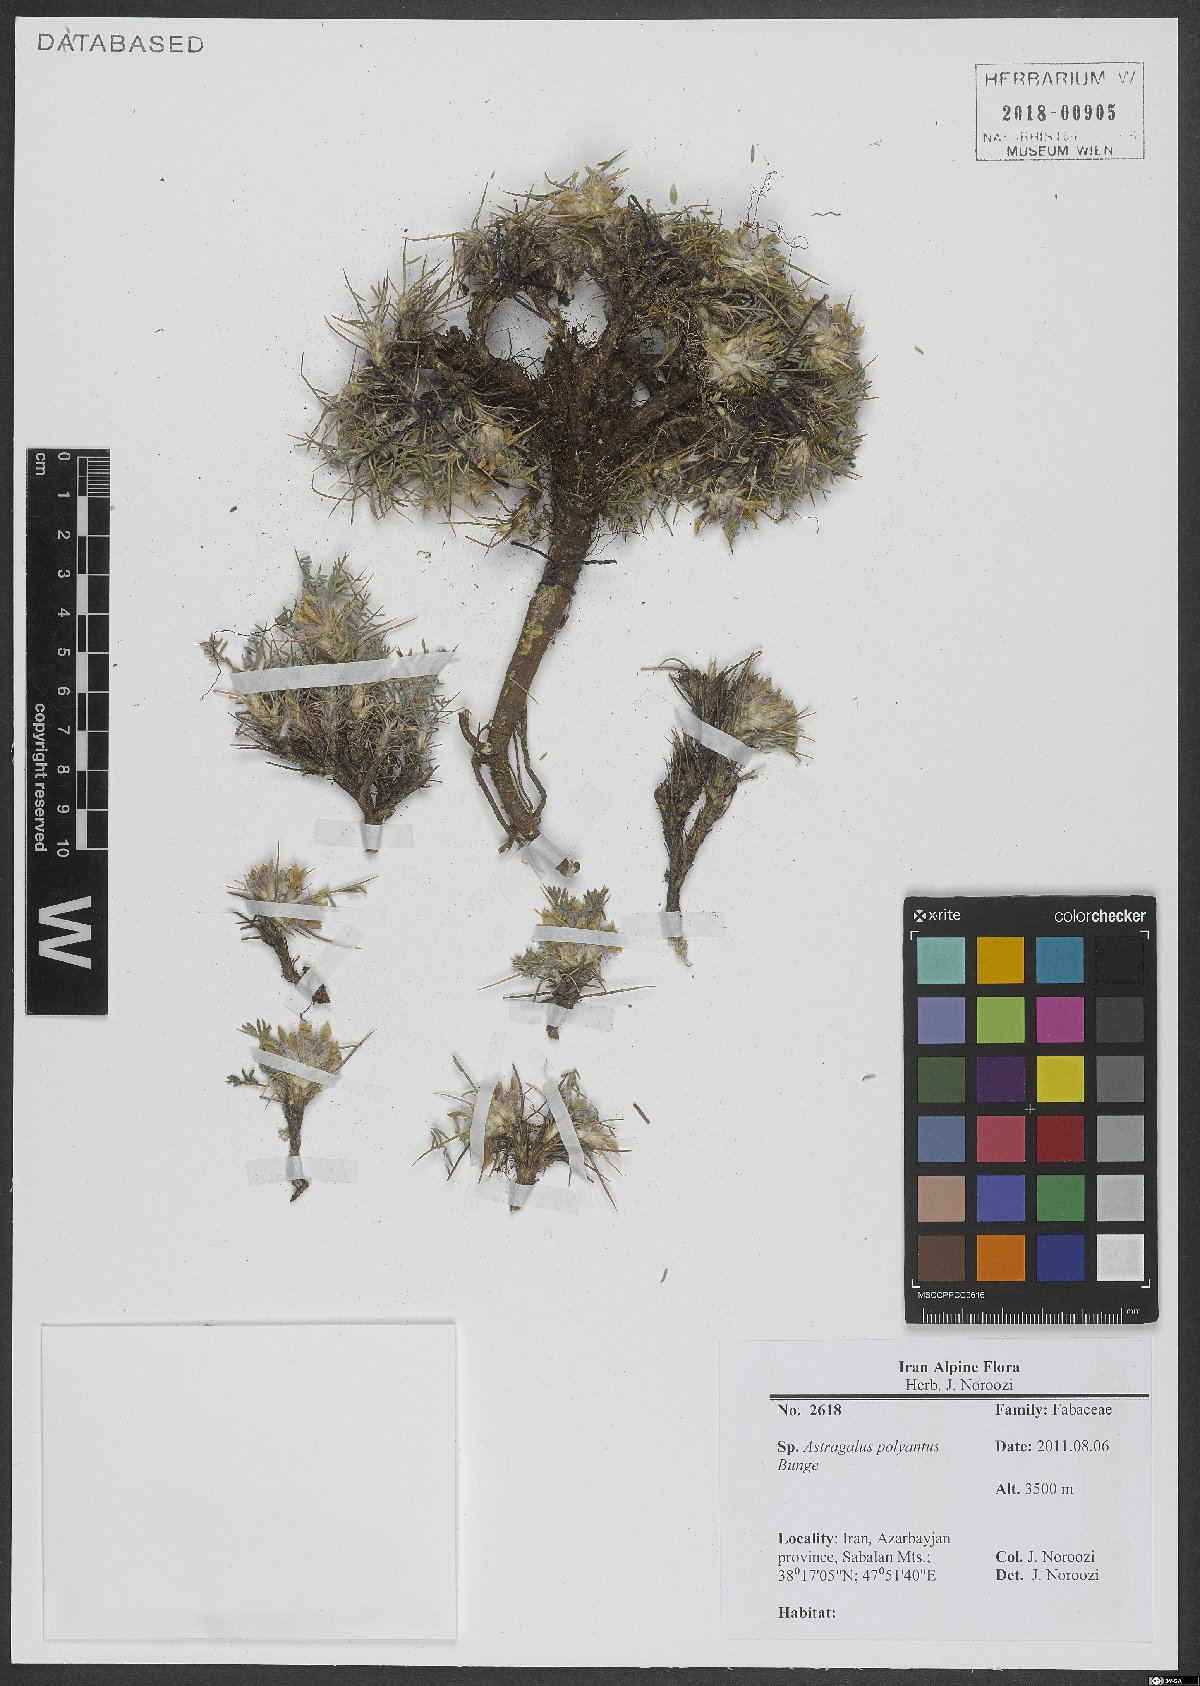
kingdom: Plantae
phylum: Tracheophyta
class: Magnoliopsida
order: Fabales
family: Fabaceae
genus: Astragalus
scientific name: Astragalus polyanthus
